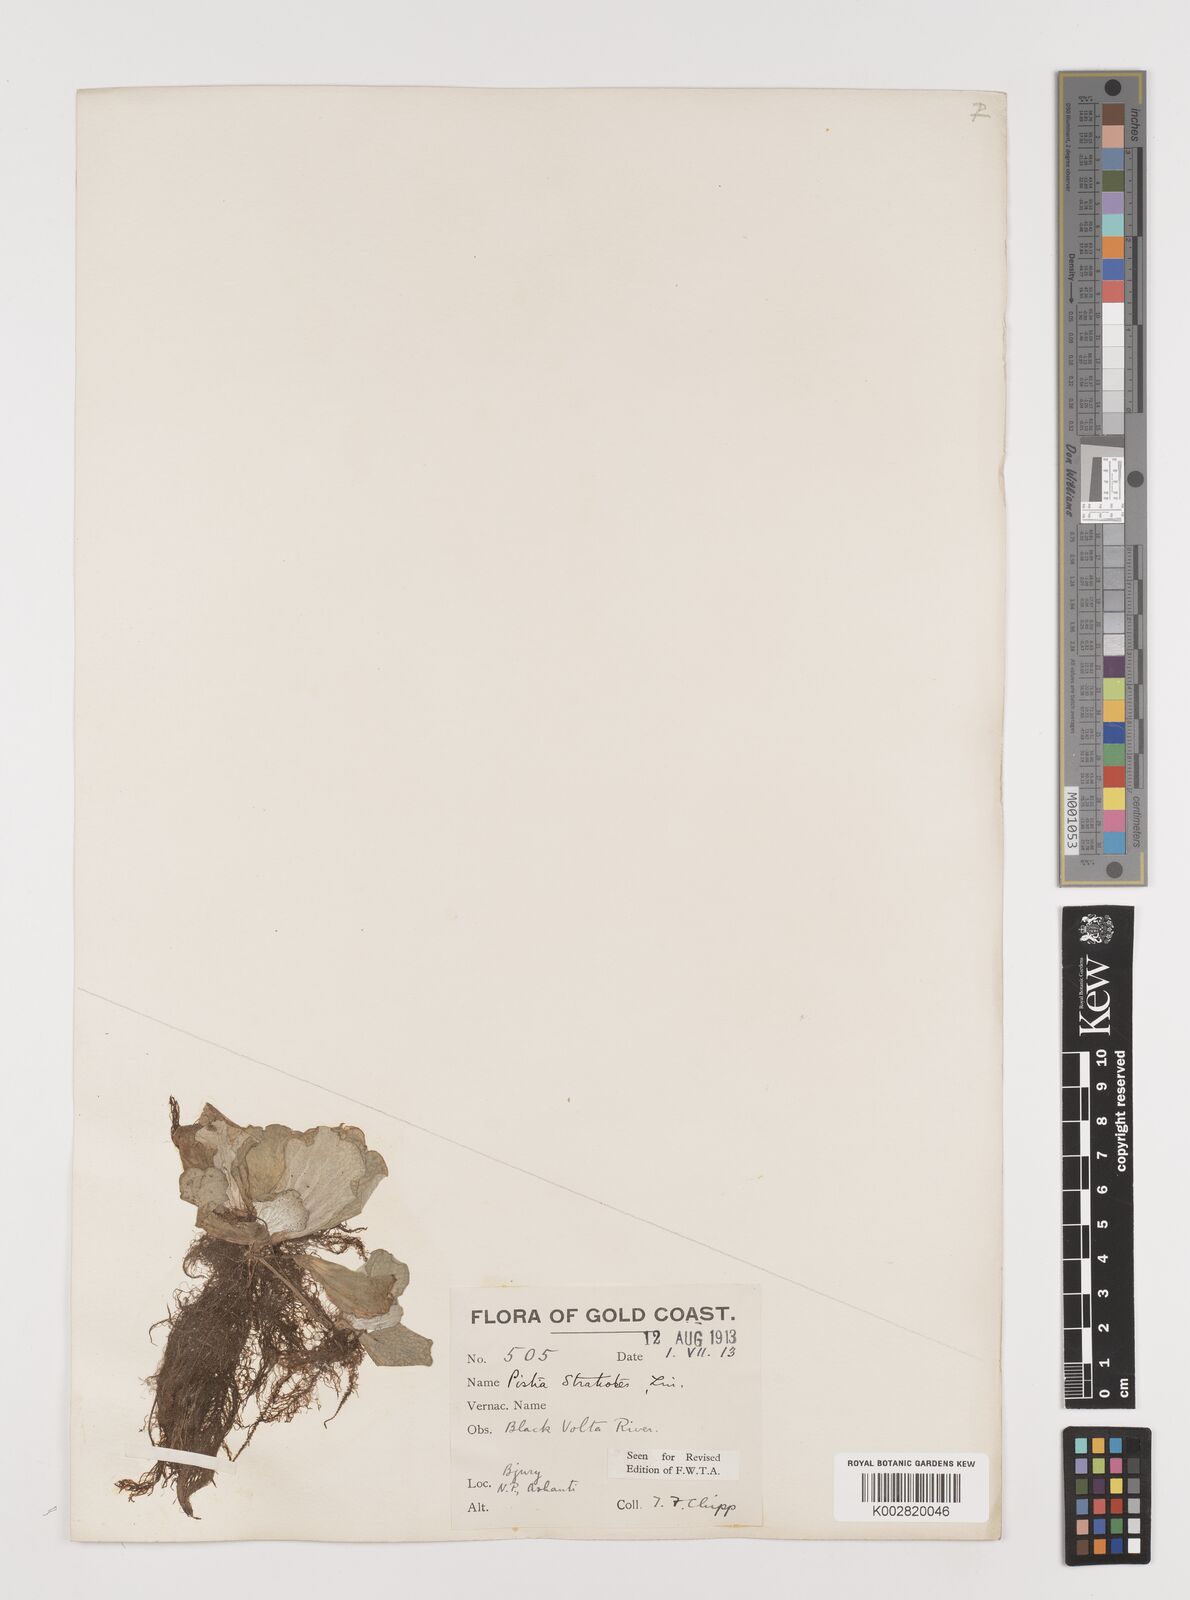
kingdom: Plantae
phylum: Tracheophyta
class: Liliopsida
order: Alismatales
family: Araceae
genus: Pistia
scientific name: Pistia stratiotes
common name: Water lettuce
